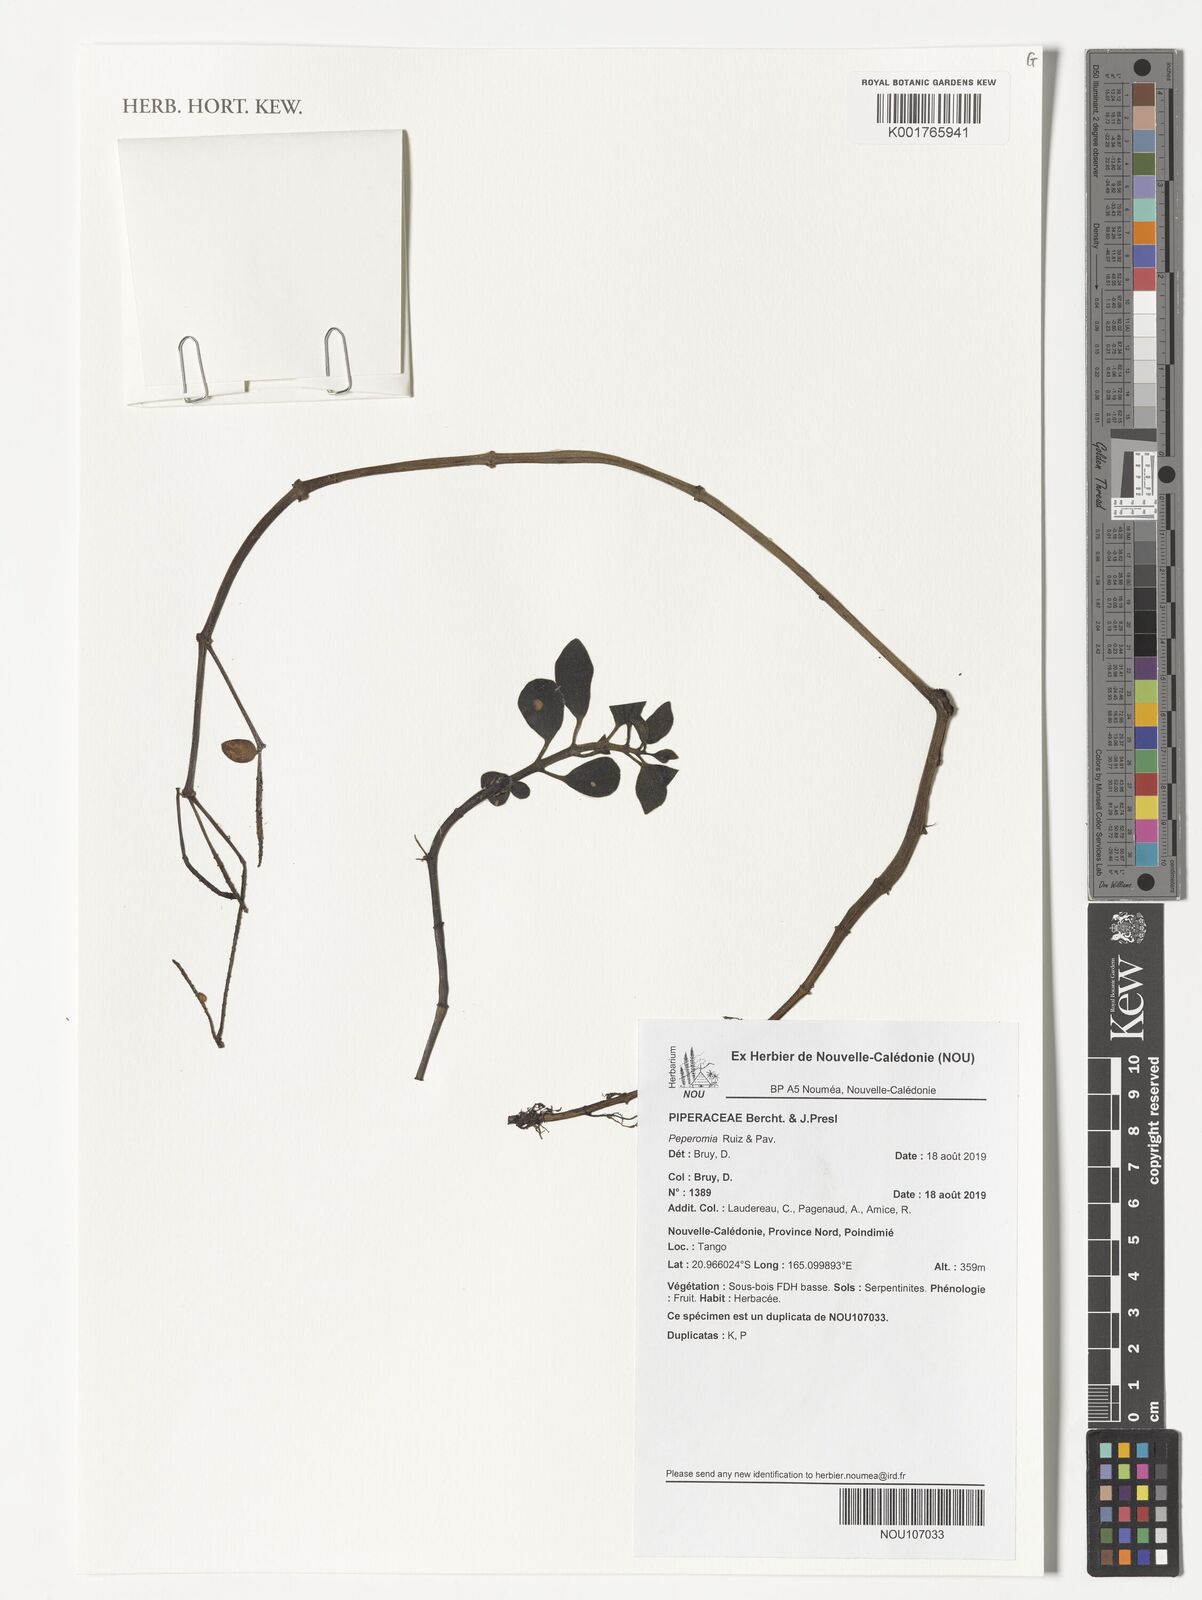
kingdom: Plantae
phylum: Tracheophyta
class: Magnoliopsida
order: Piperales
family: Piperaceae
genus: Peperomia
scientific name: Peperomia
